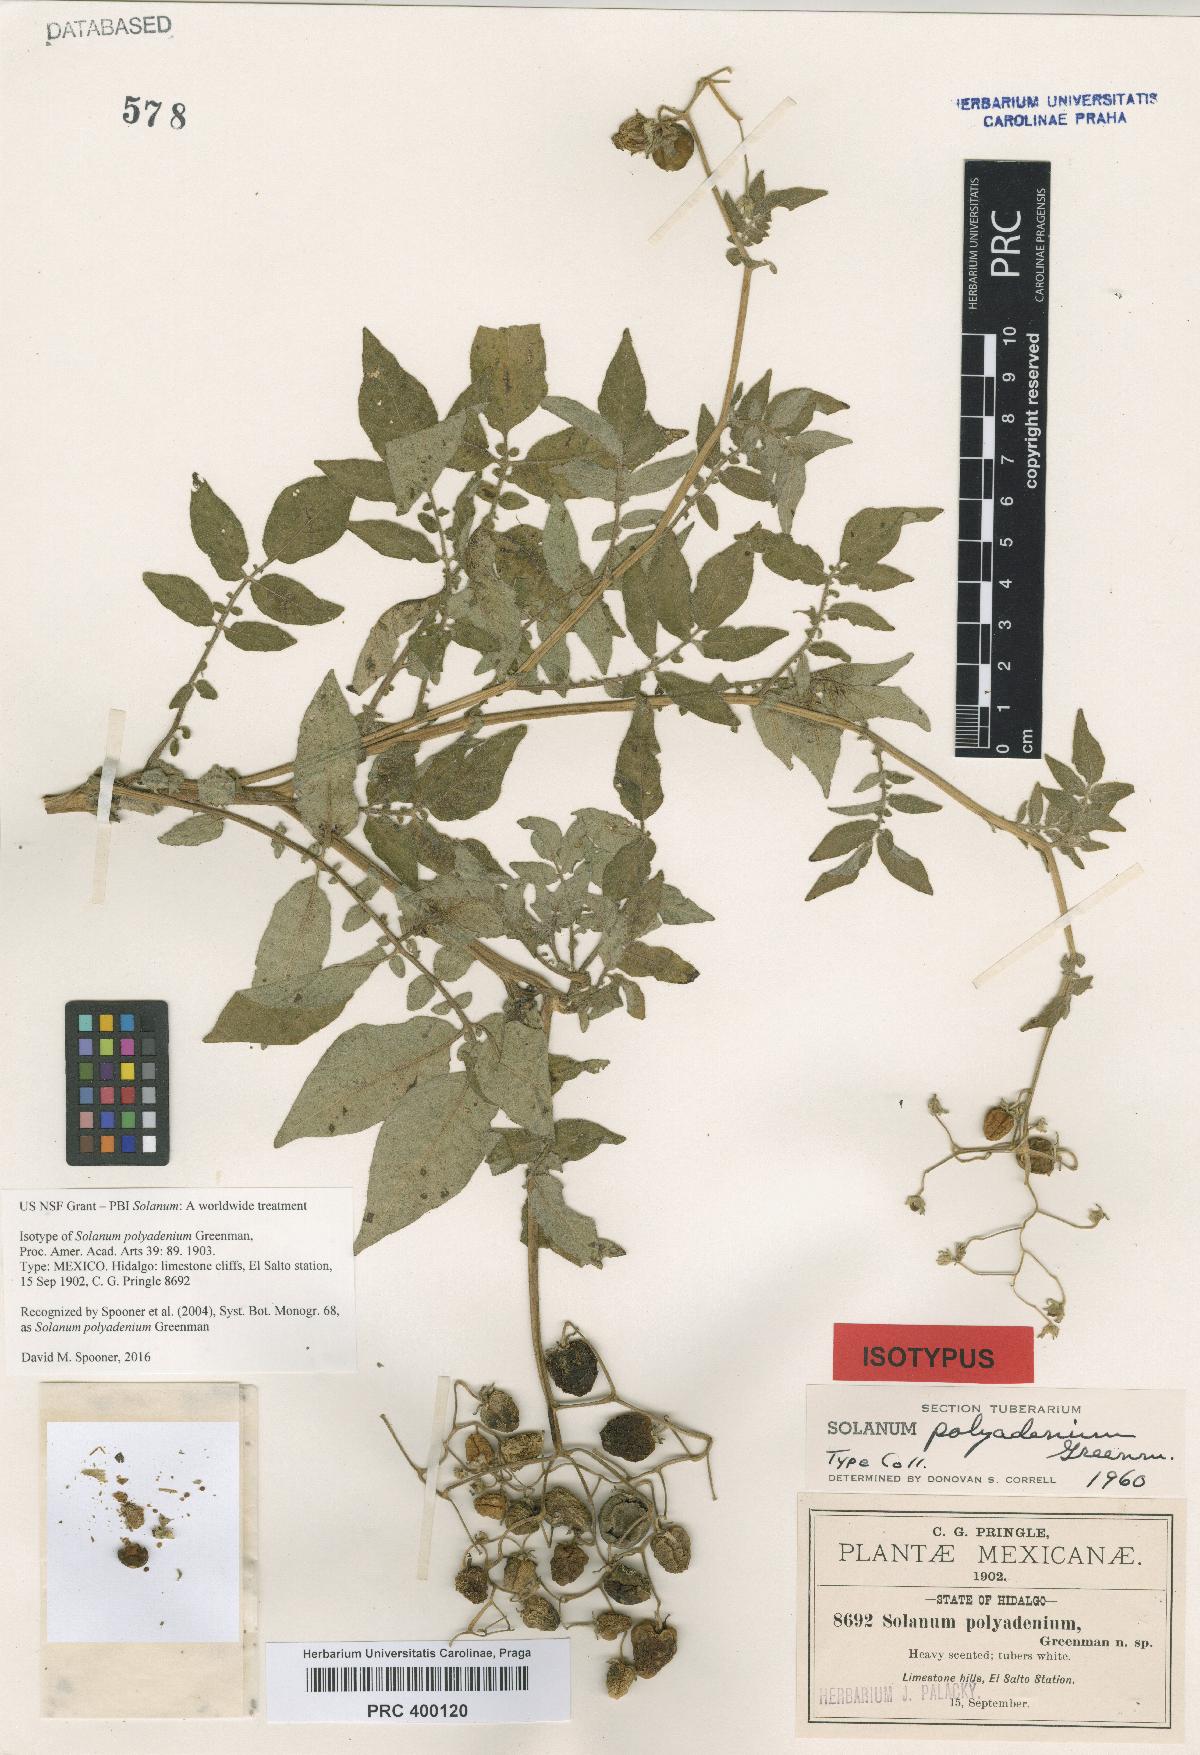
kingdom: Plantae
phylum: Tracheophyta
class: Magnoliopsida
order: Solanales
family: Solanaceae
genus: Solanum
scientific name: Solanum polyadenium
